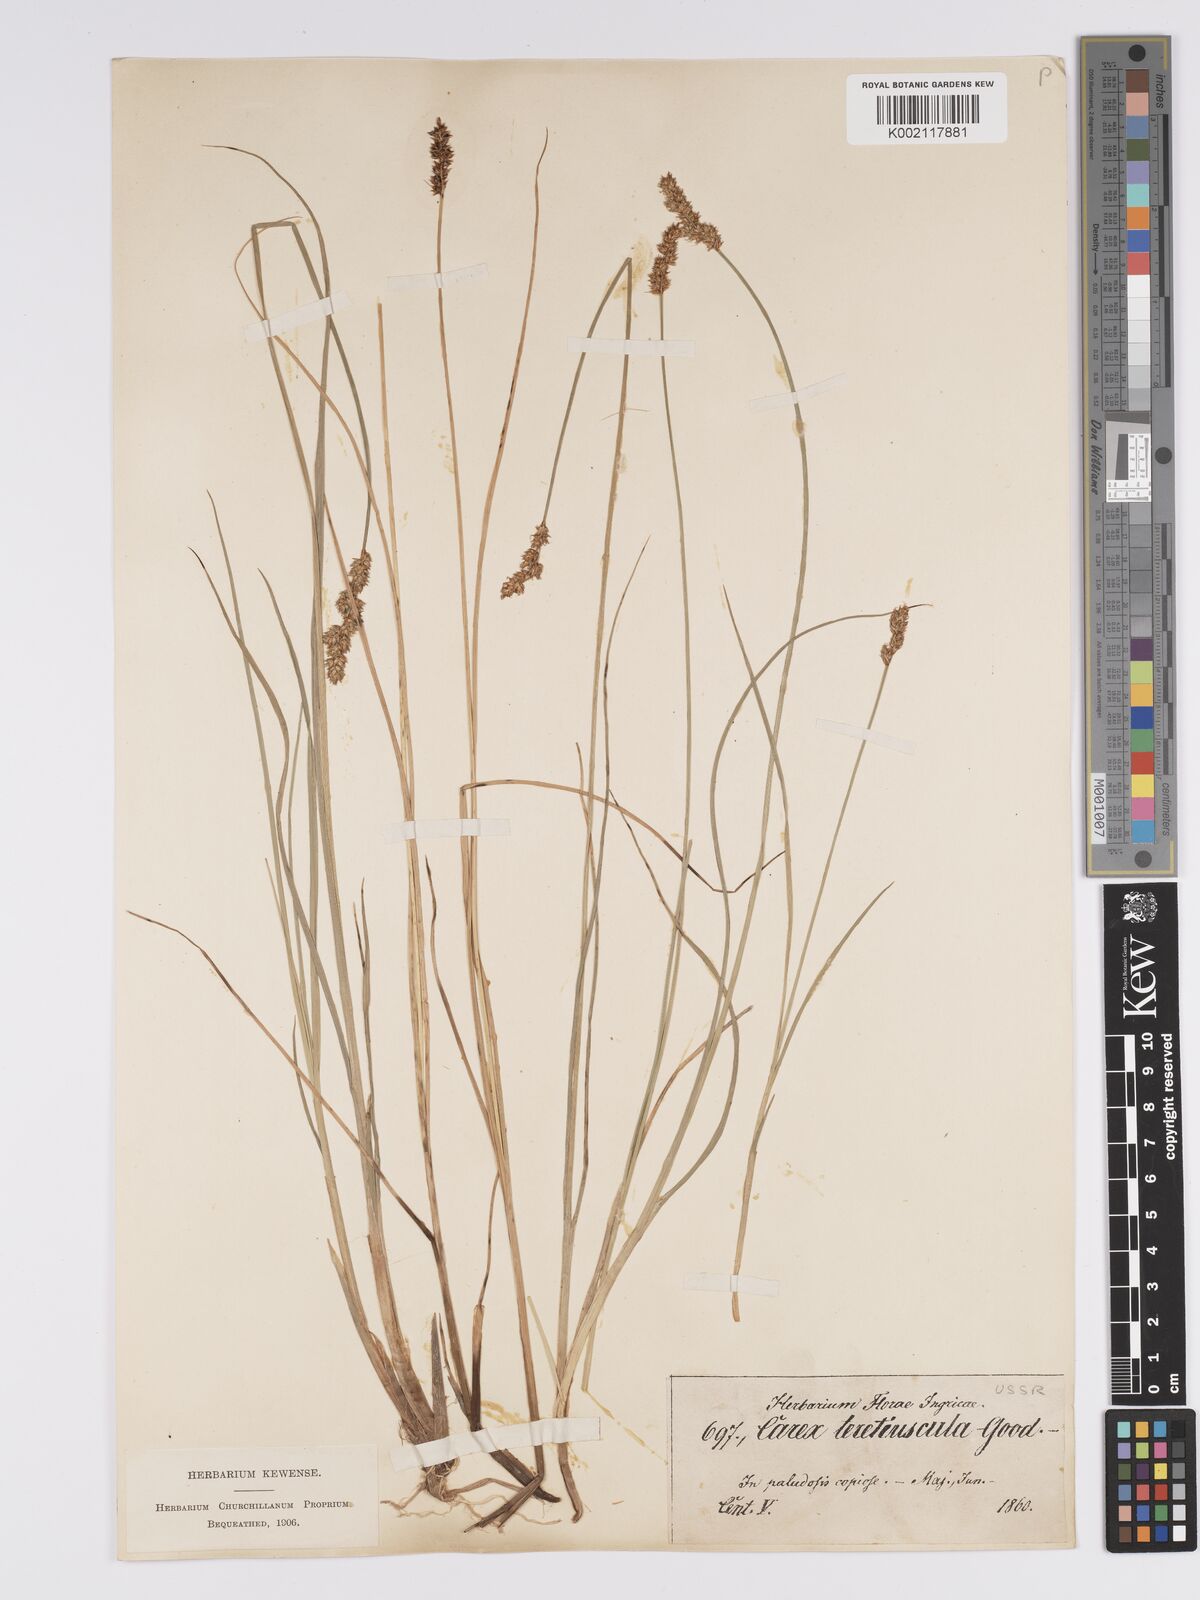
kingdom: Plantae
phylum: Tracheophyta
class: Liliopsida
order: Poales
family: Cyperaceae
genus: Carex
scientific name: Carex diandra
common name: Lesser tussock-sedge
